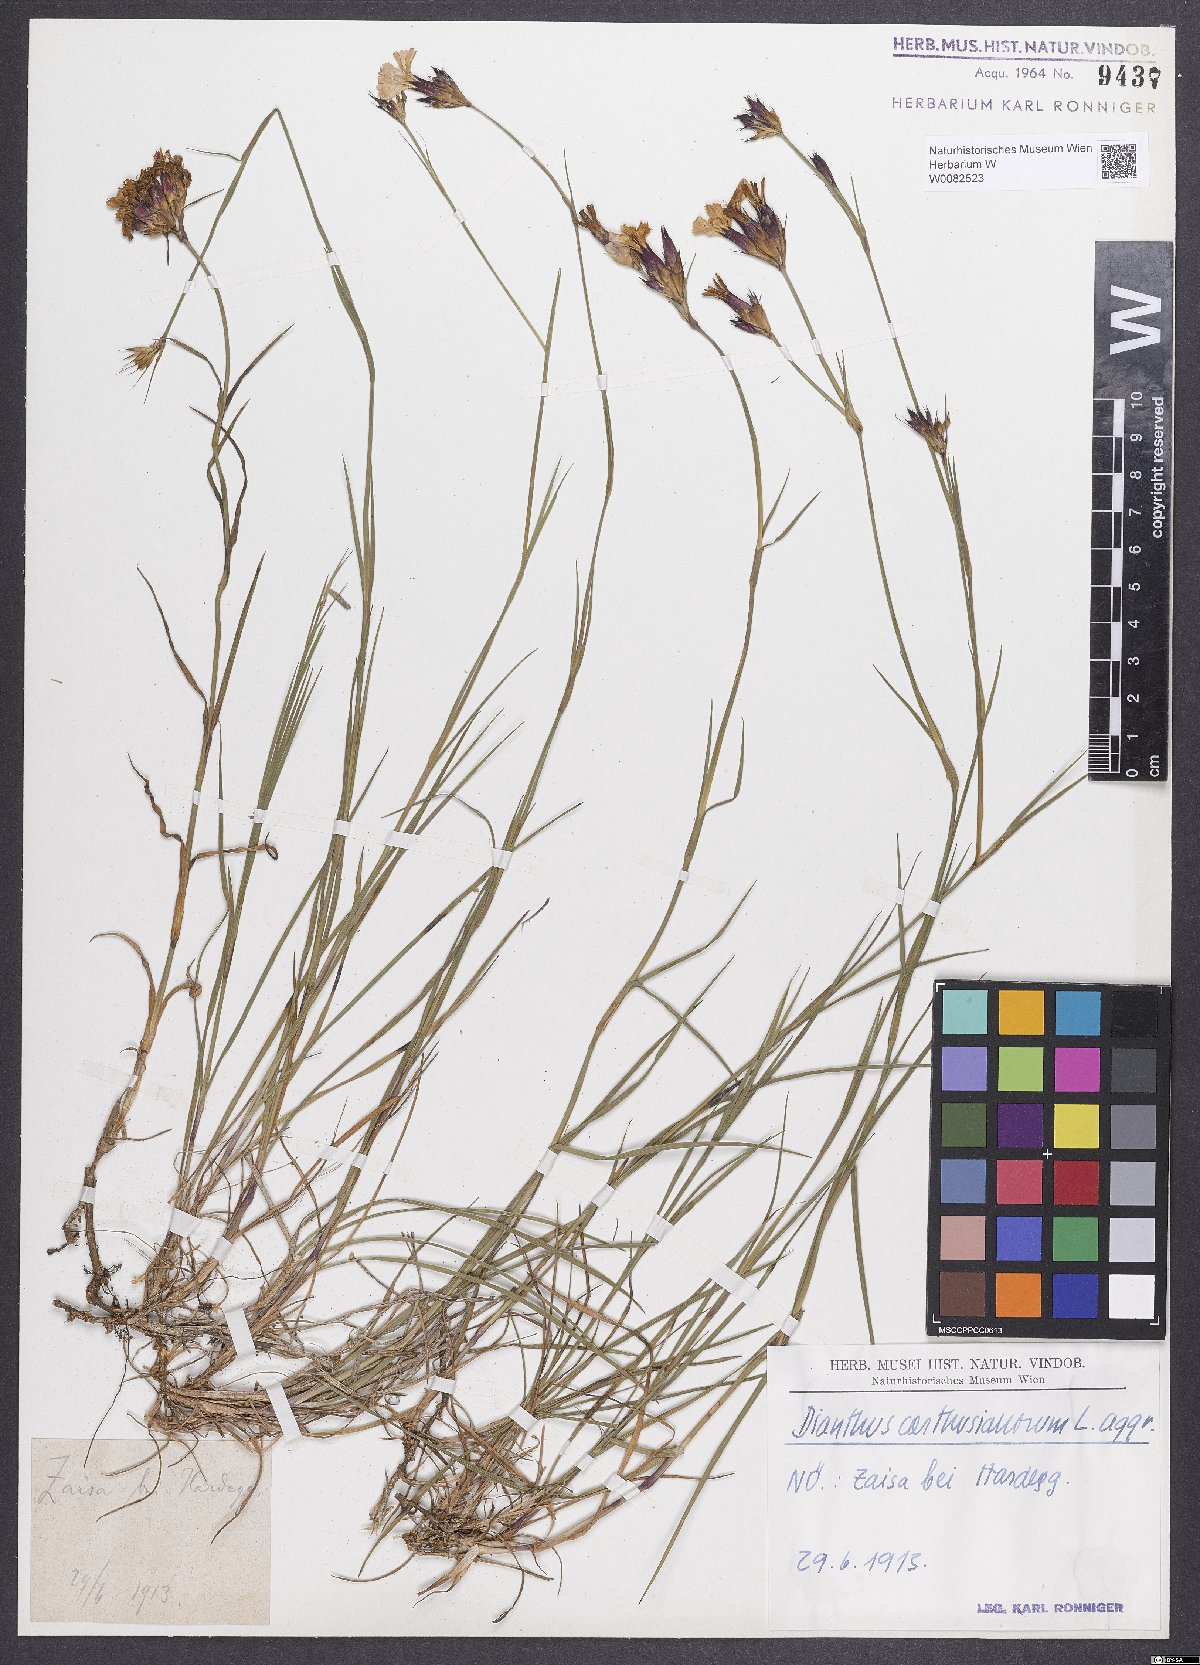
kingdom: Plantae
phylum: Tracheophyta
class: Magnoliopsida
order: Caryophyllales
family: Caryophyllaceae
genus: Dianthus
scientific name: Dianthus carthusianorum
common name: Carthusian pink
